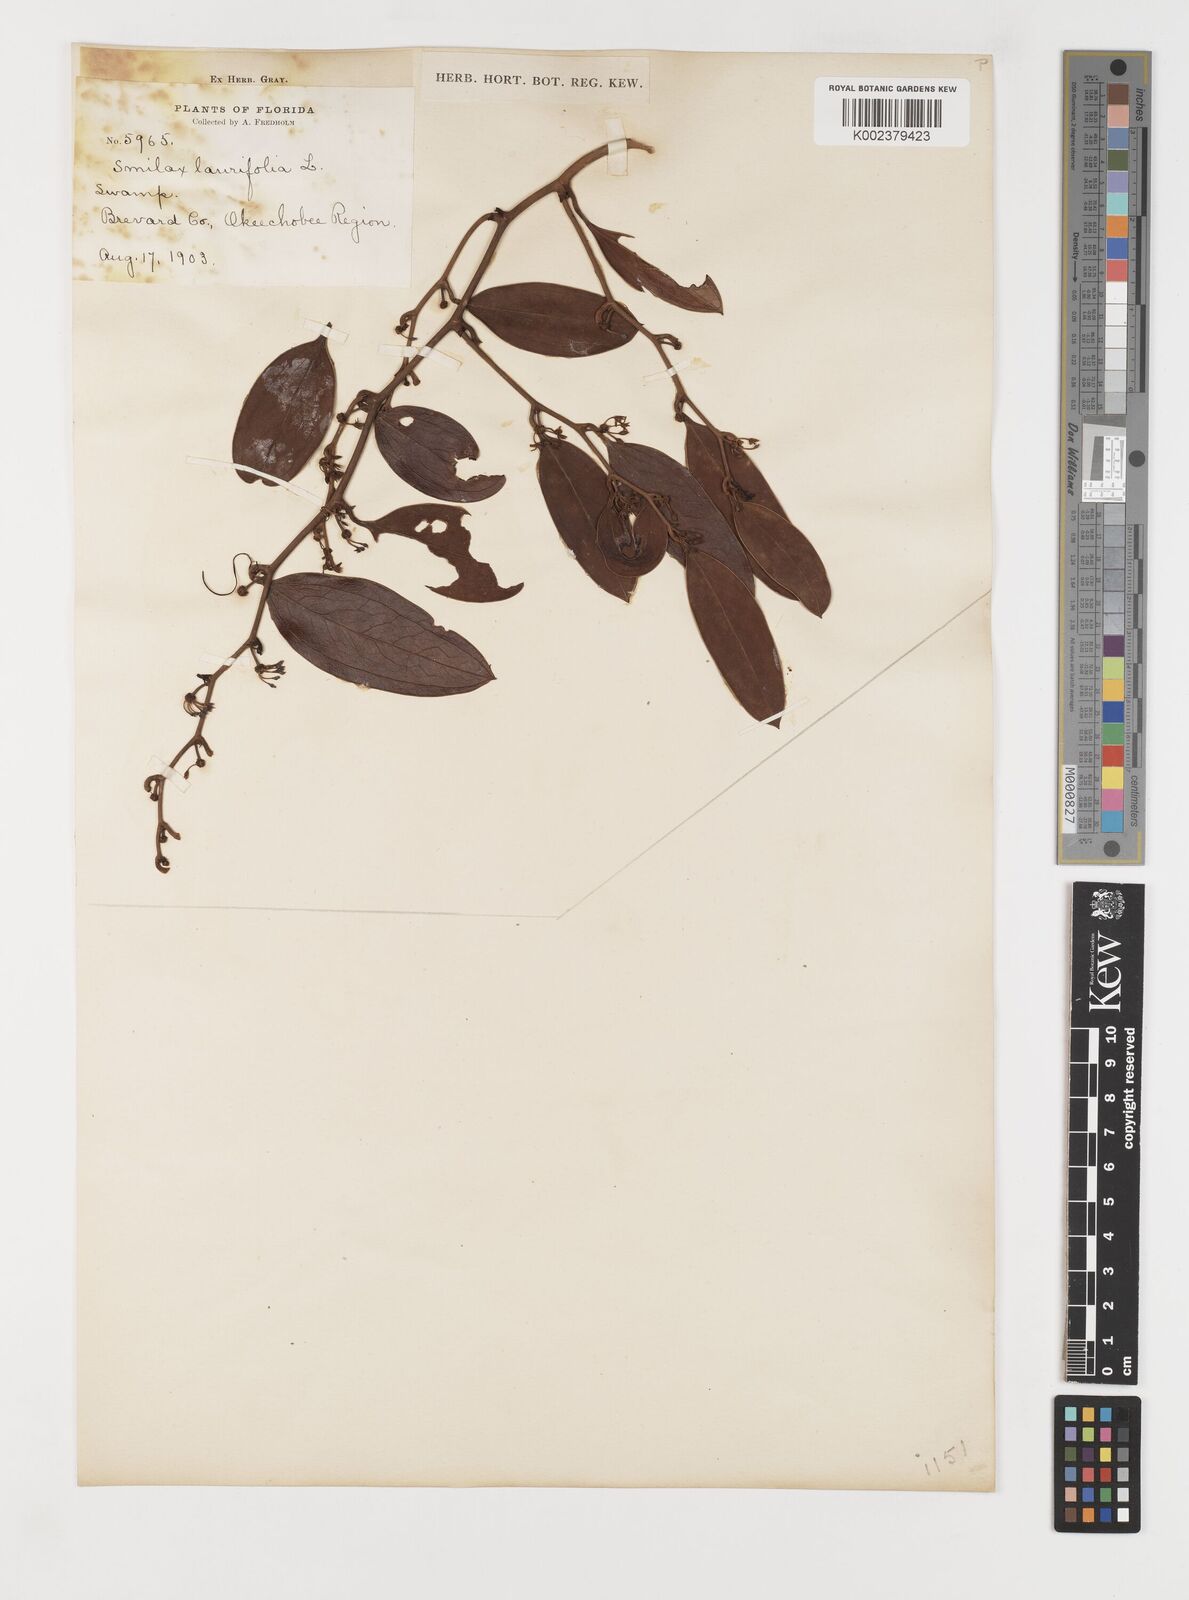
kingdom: Plantae
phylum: Tracheophyta
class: Liliopsida
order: Liliales
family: Smilacaceae
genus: Smilax
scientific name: Smilax laurifolia
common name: Bamboovine
